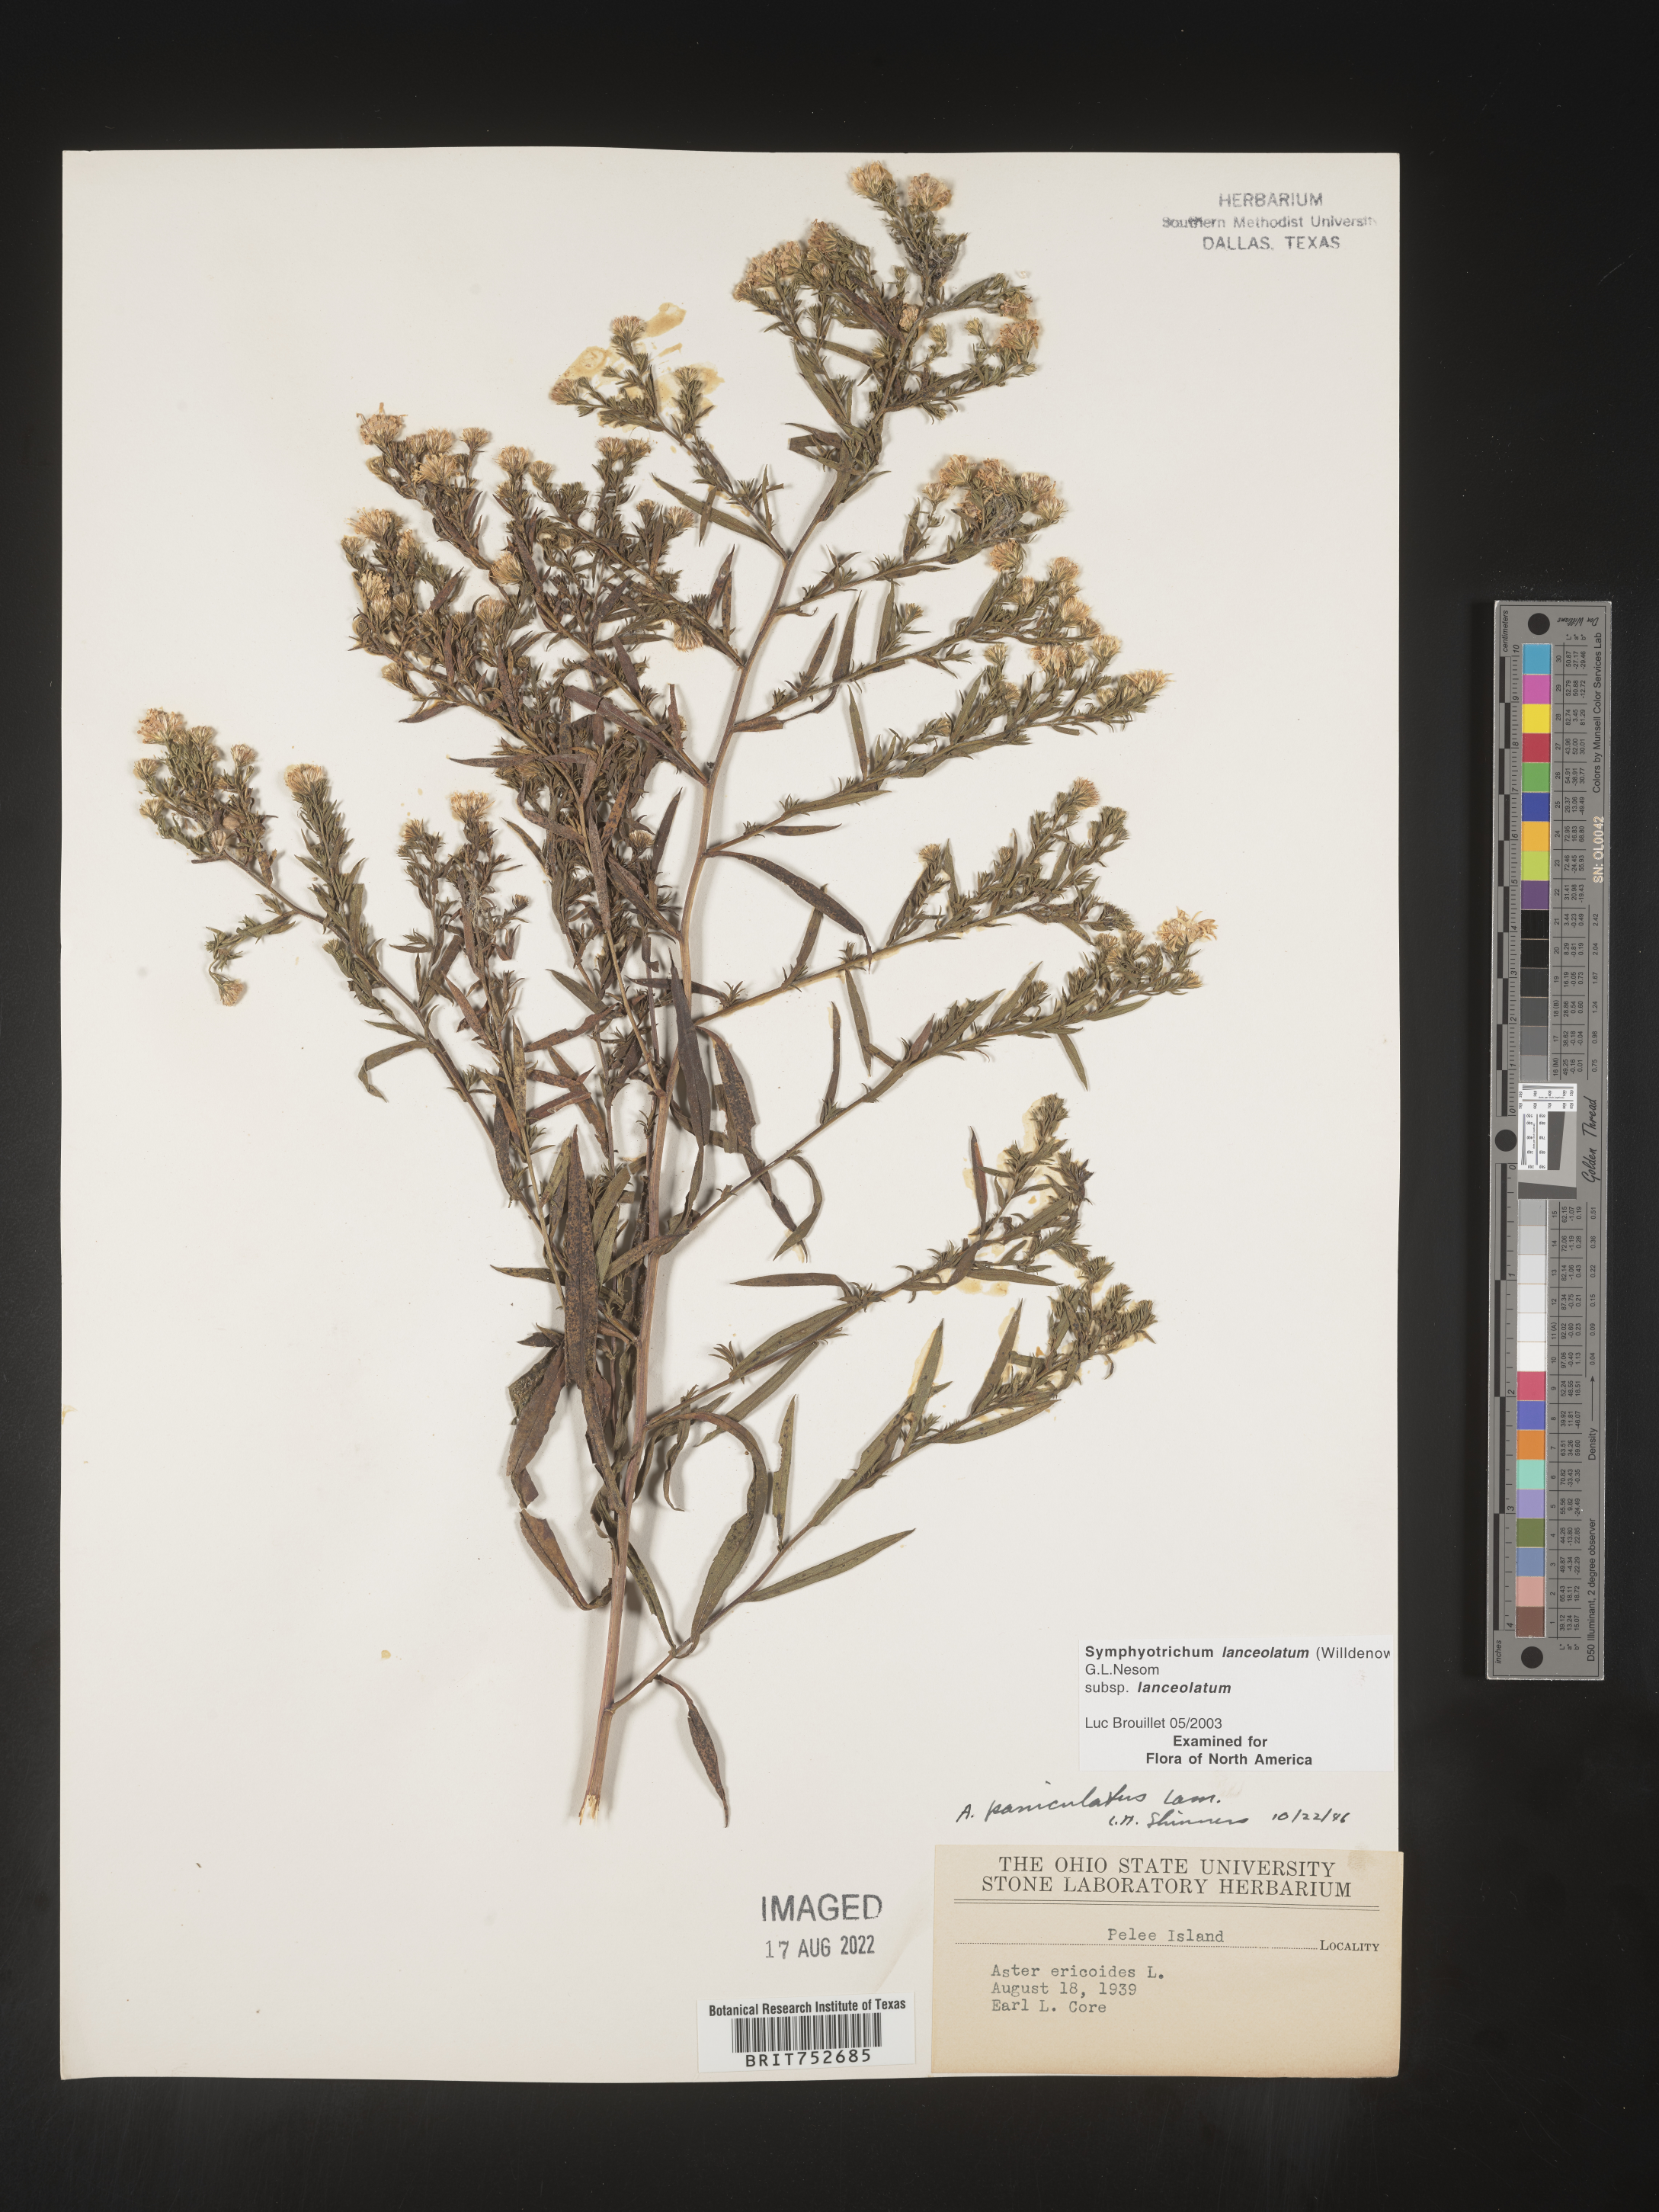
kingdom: Plantae
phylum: Tracheophyta
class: Magnoliopsida
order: Asterales
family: Asteraceae
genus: Symphyotrichum
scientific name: Symphyotrichum lanceolatum
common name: Panicled aster
